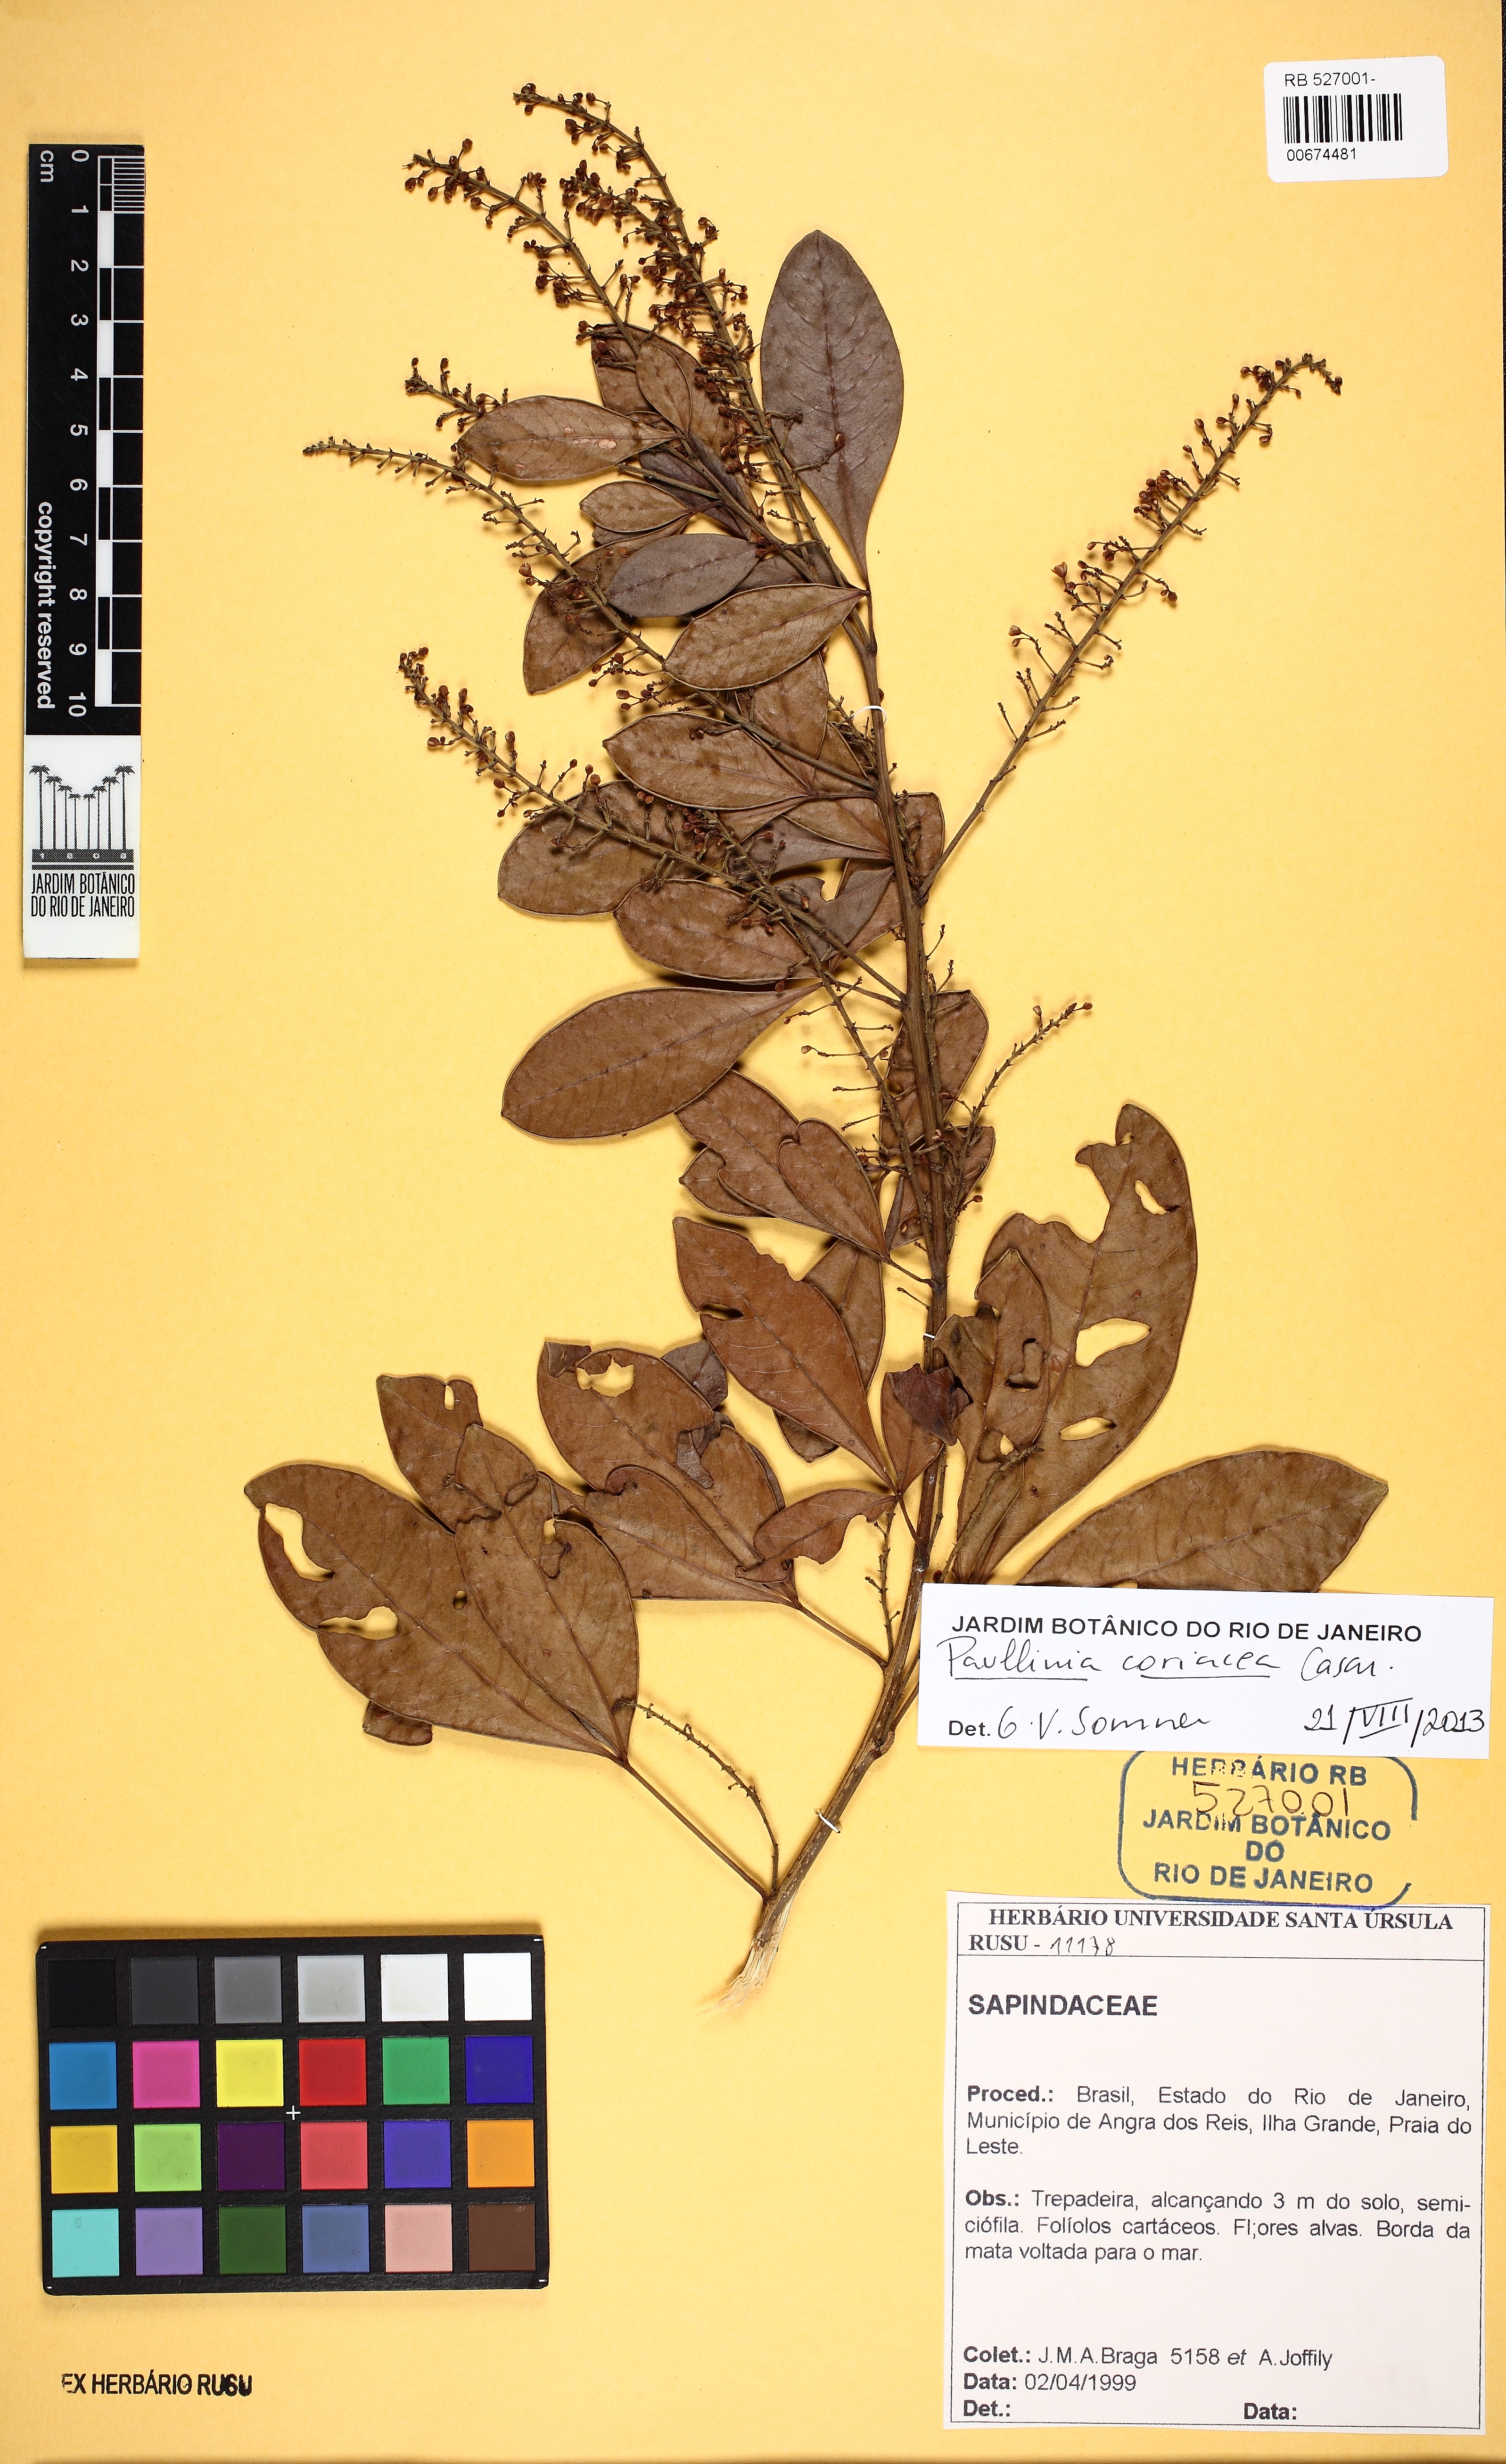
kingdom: Plantae
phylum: Tracheophyta
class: Magnoliopsida
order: Sapindales
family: Sapindaceae
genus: Paullinia
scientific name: Paullinia coriacea
